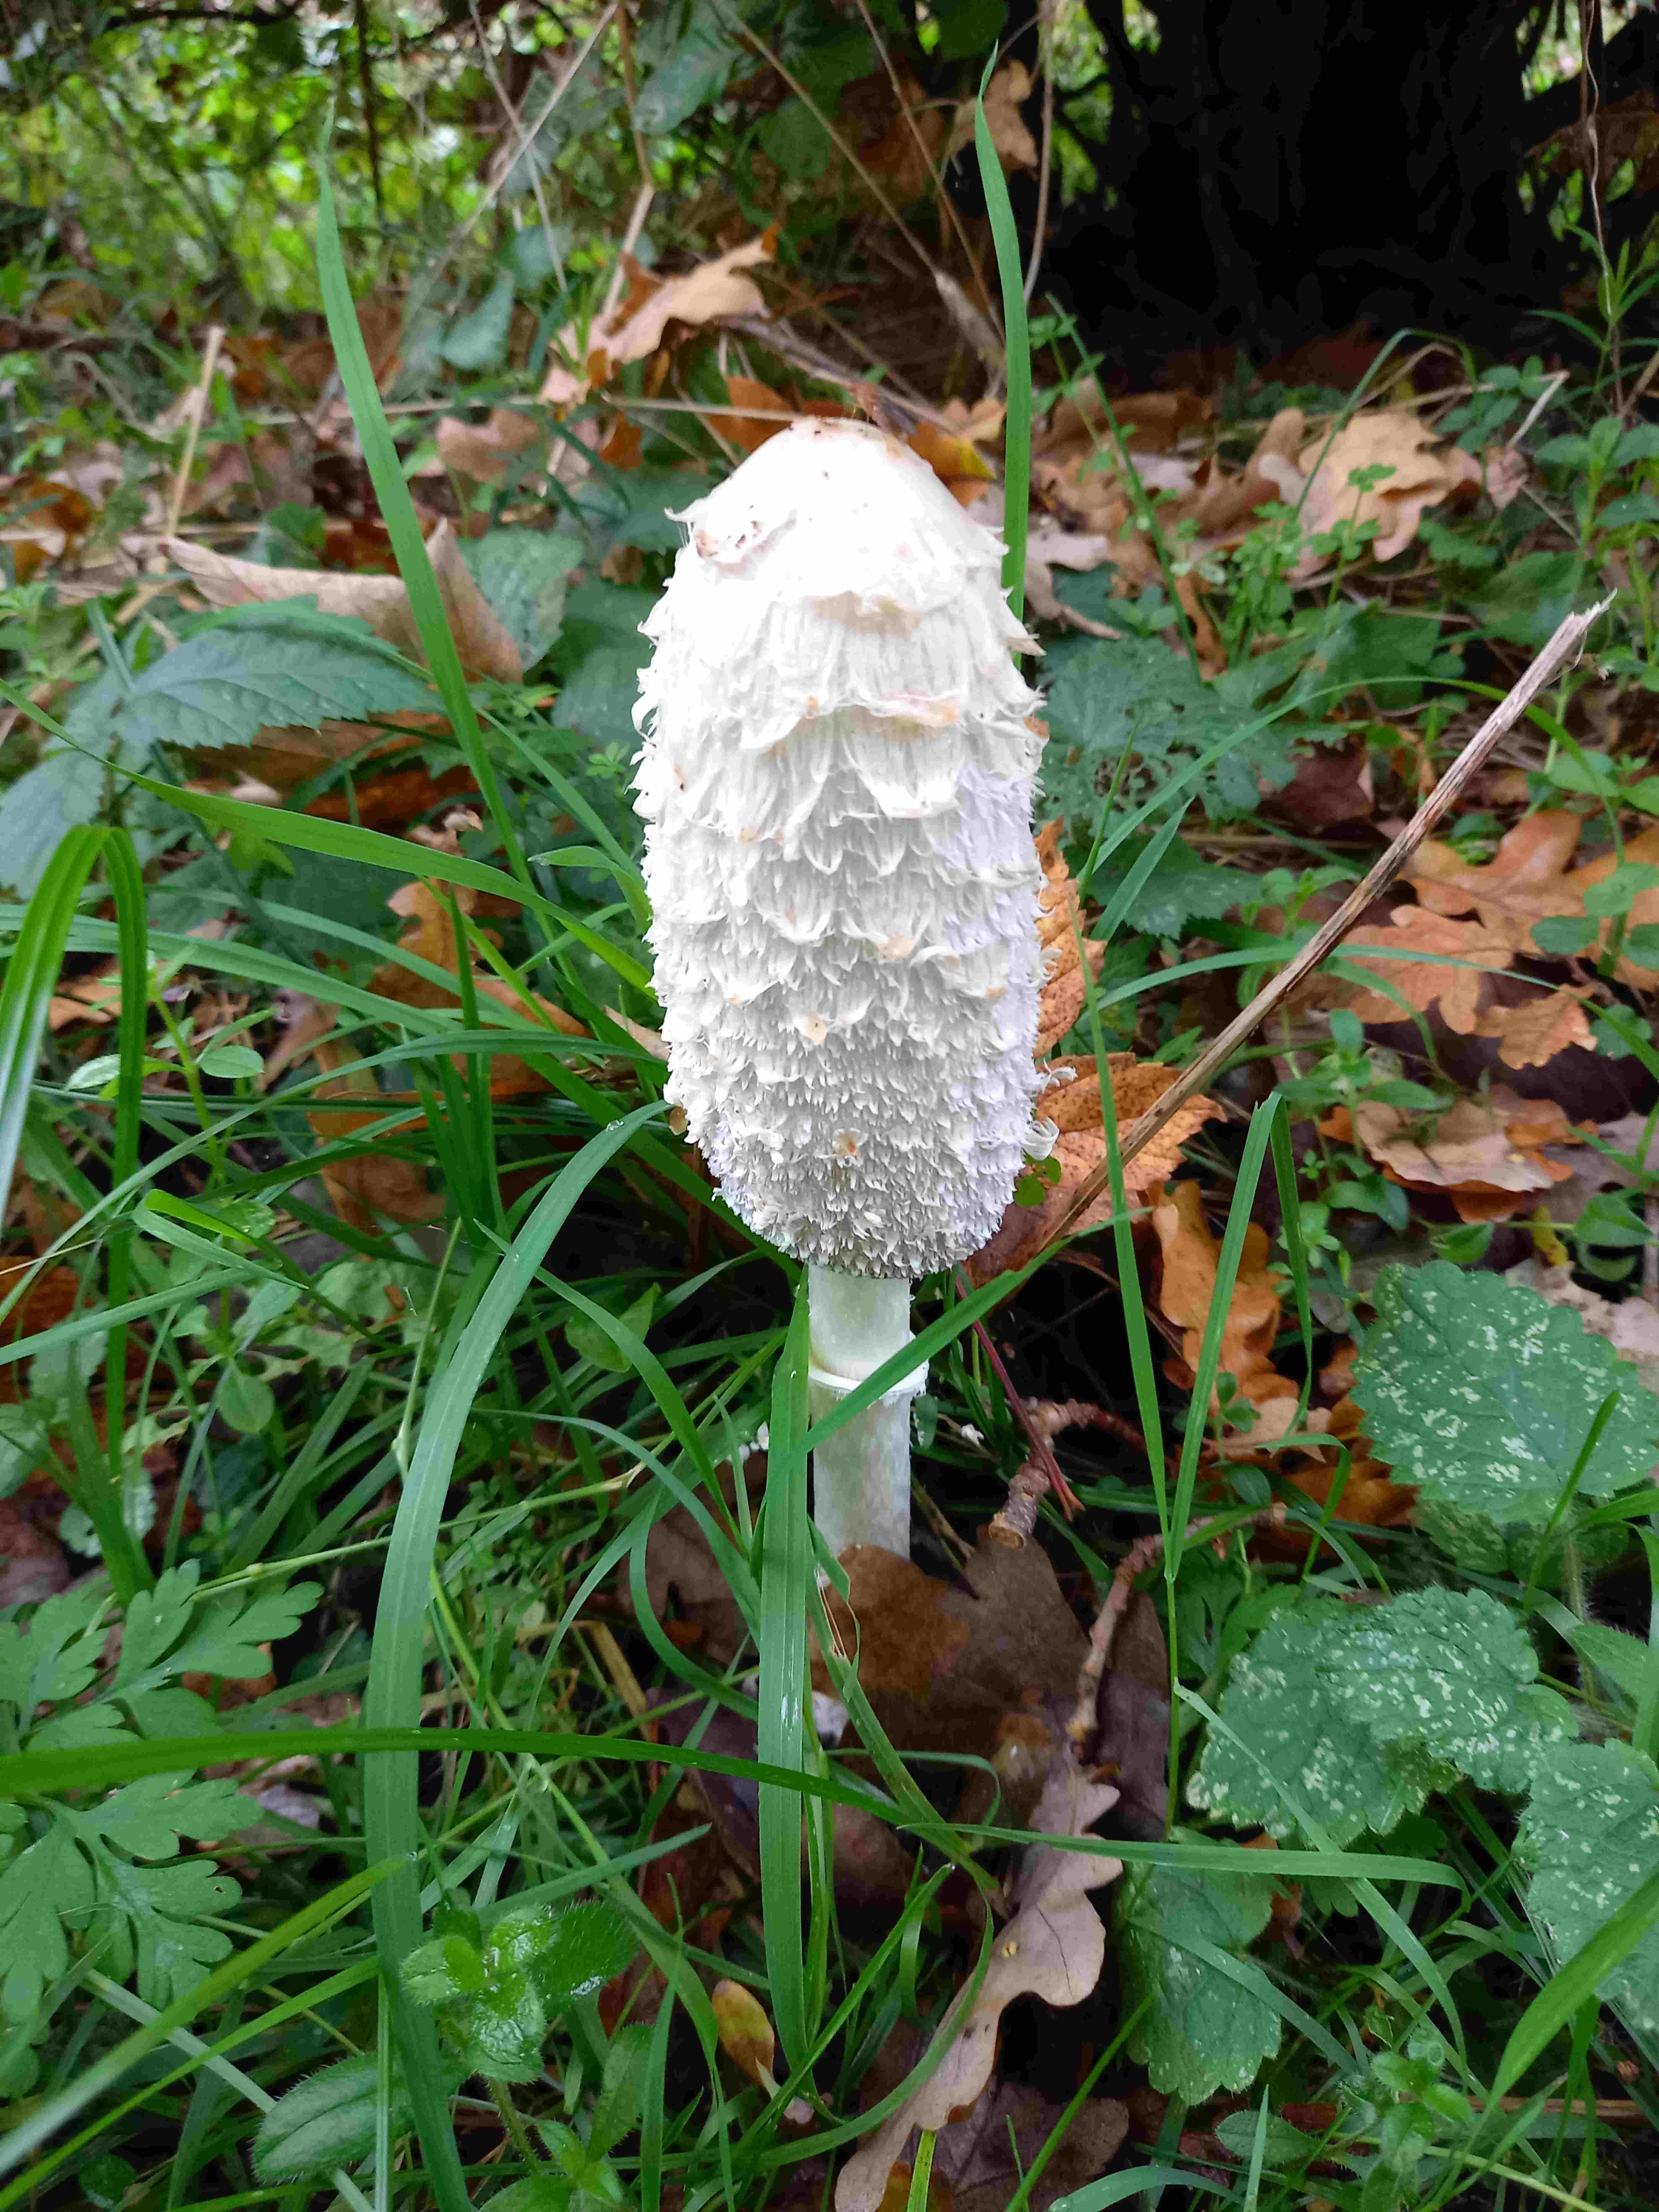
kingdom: Fungi
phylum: Basidiomycota
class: Agaricomycetes
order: Agaricales
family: Agaricaceae
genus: Coprinus
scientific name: Coprinus comatus
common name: stor parykhat
